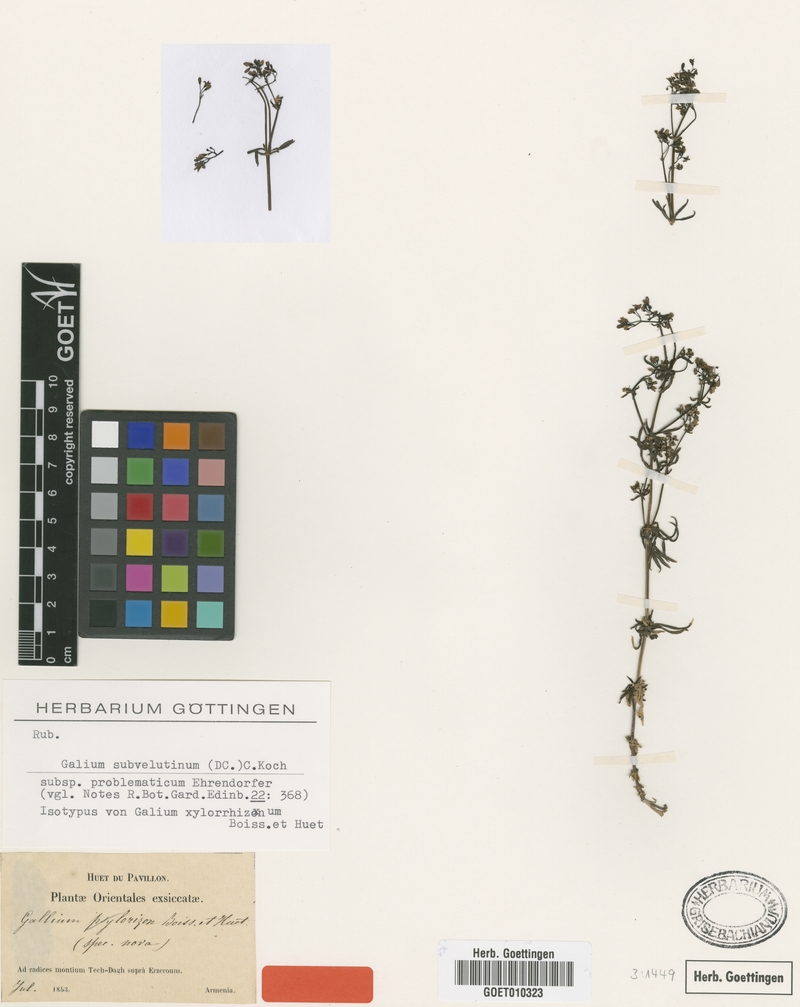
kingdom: Plantae
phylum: Tracheophyta
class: Magnoliopsida
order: Gentianales
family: Rubiaceae
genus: Galium
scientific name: Galium problematicum
